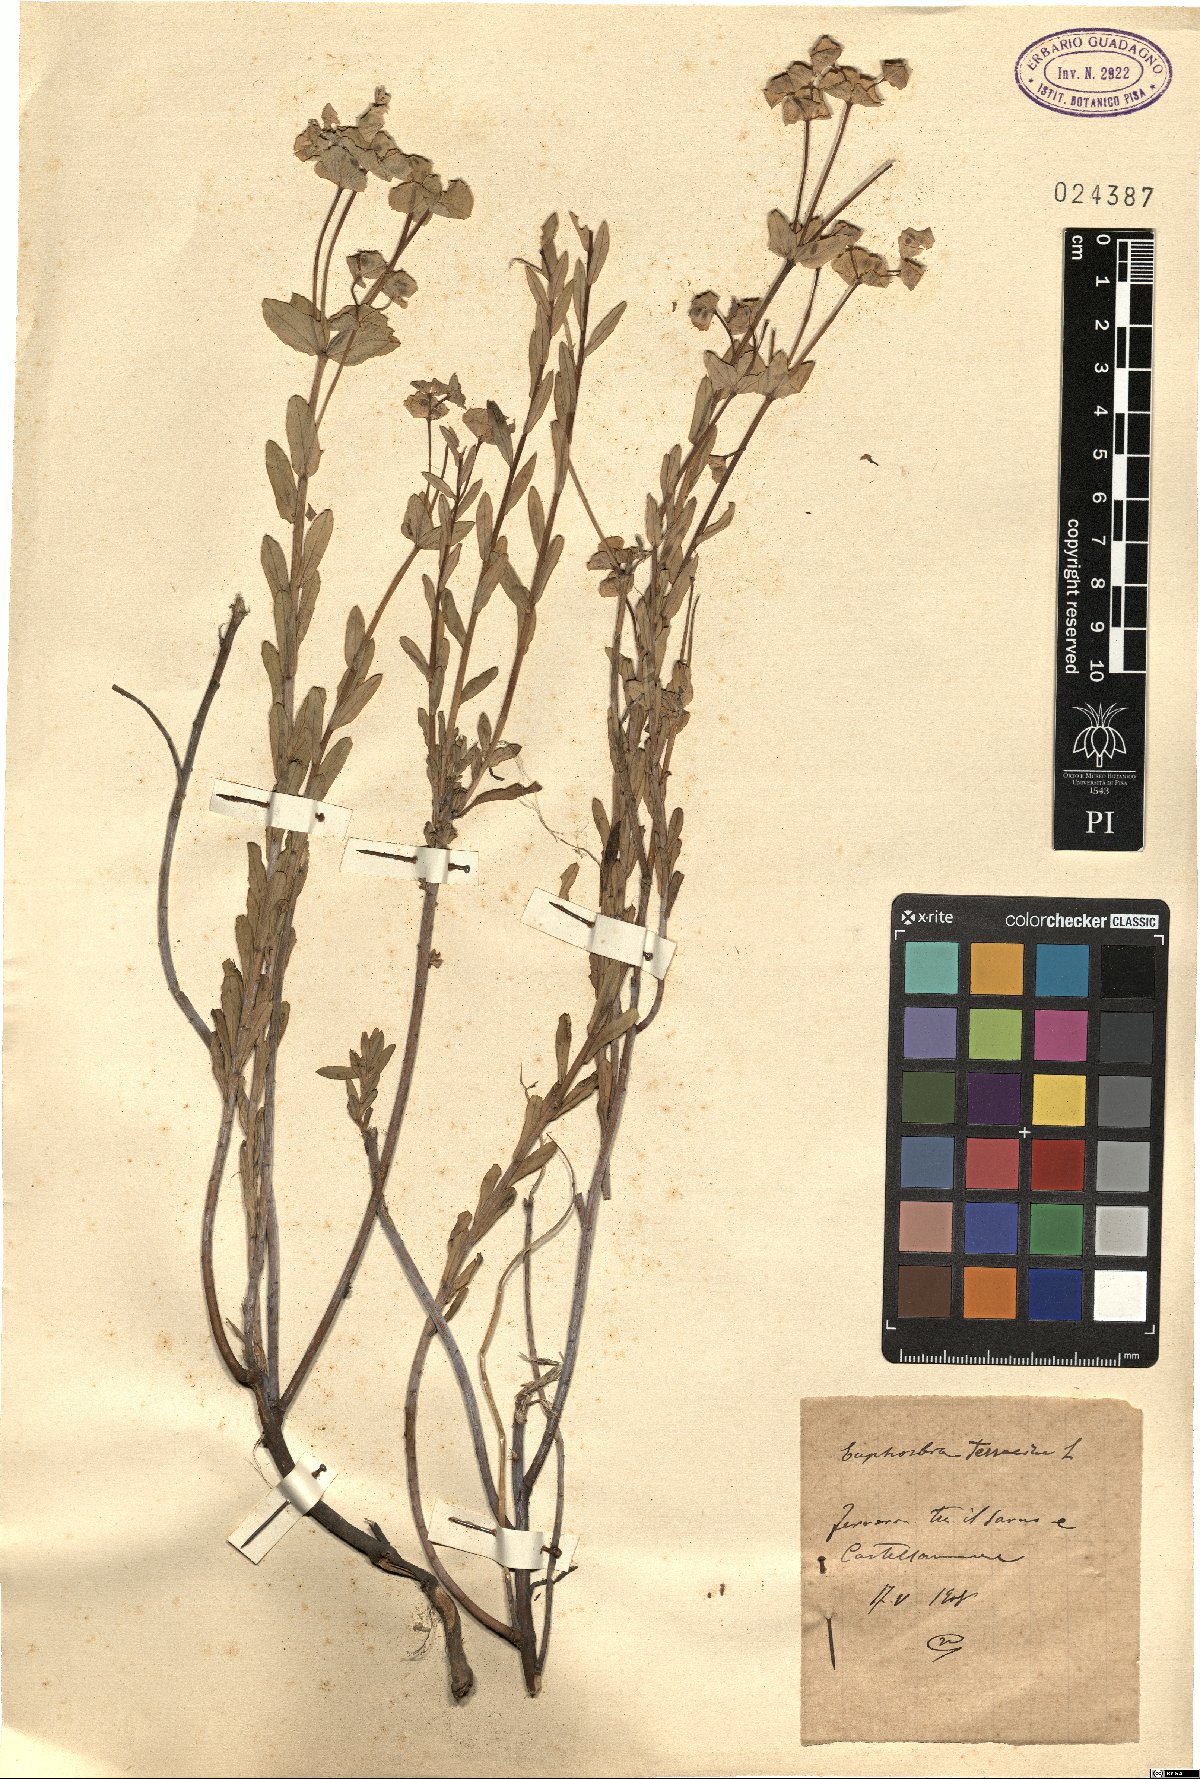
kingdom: Plantae
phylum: Tracheophyta
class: Magnoliopsida
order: Malpighiales
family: Euphorbiaceae
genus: Euphorbia
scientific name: Euphorbia terracina
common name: Geraldton carnation weed
